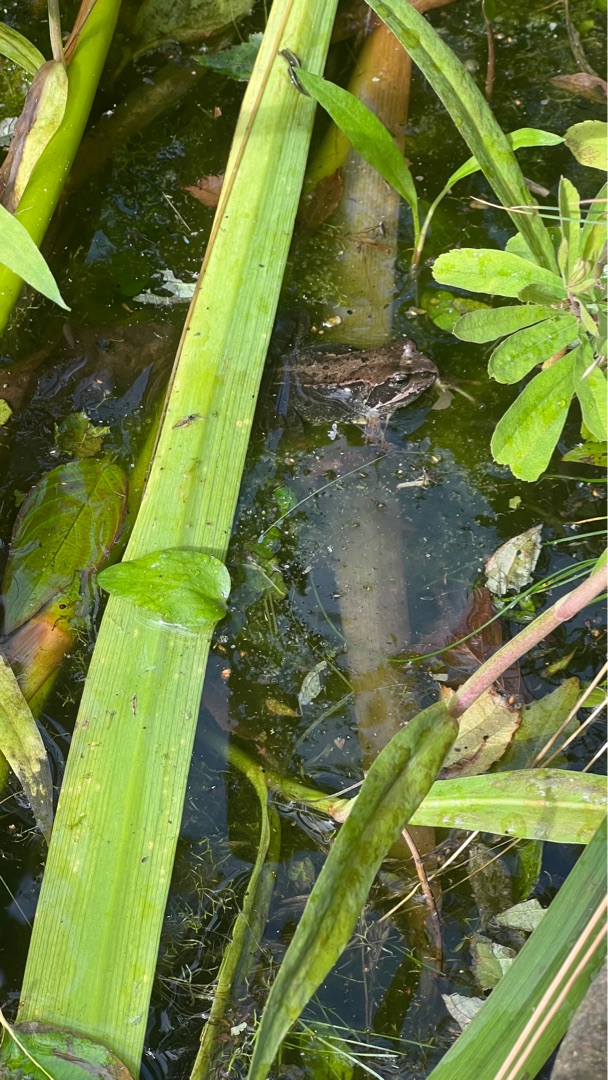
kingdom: Animalia
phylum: Chordata
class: Amphibia
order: Anura
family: Ranidae
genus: Rana
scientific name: Rana temporaria
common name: Butsnudet frø
